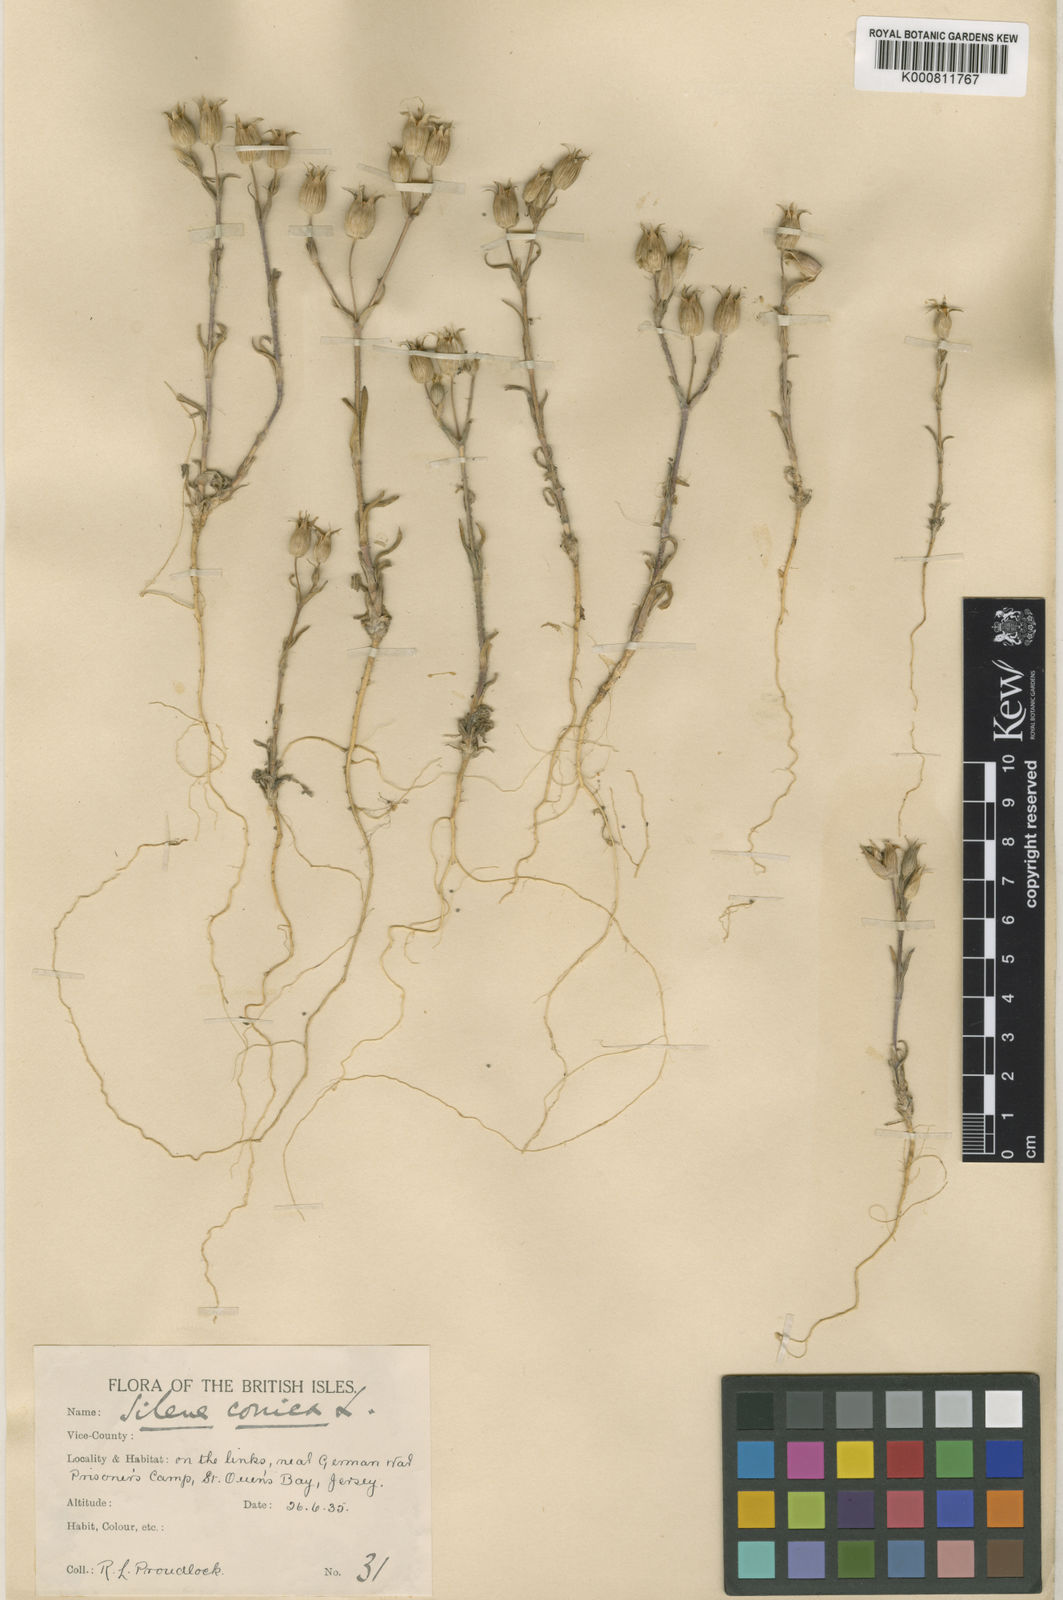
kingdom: Plantae
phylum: Tracheophyta
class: Magnoliopsida
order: Caryophyllales
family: Caryophyllaceae
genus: Silene
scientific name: Silene conica
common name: Sand catchfly
